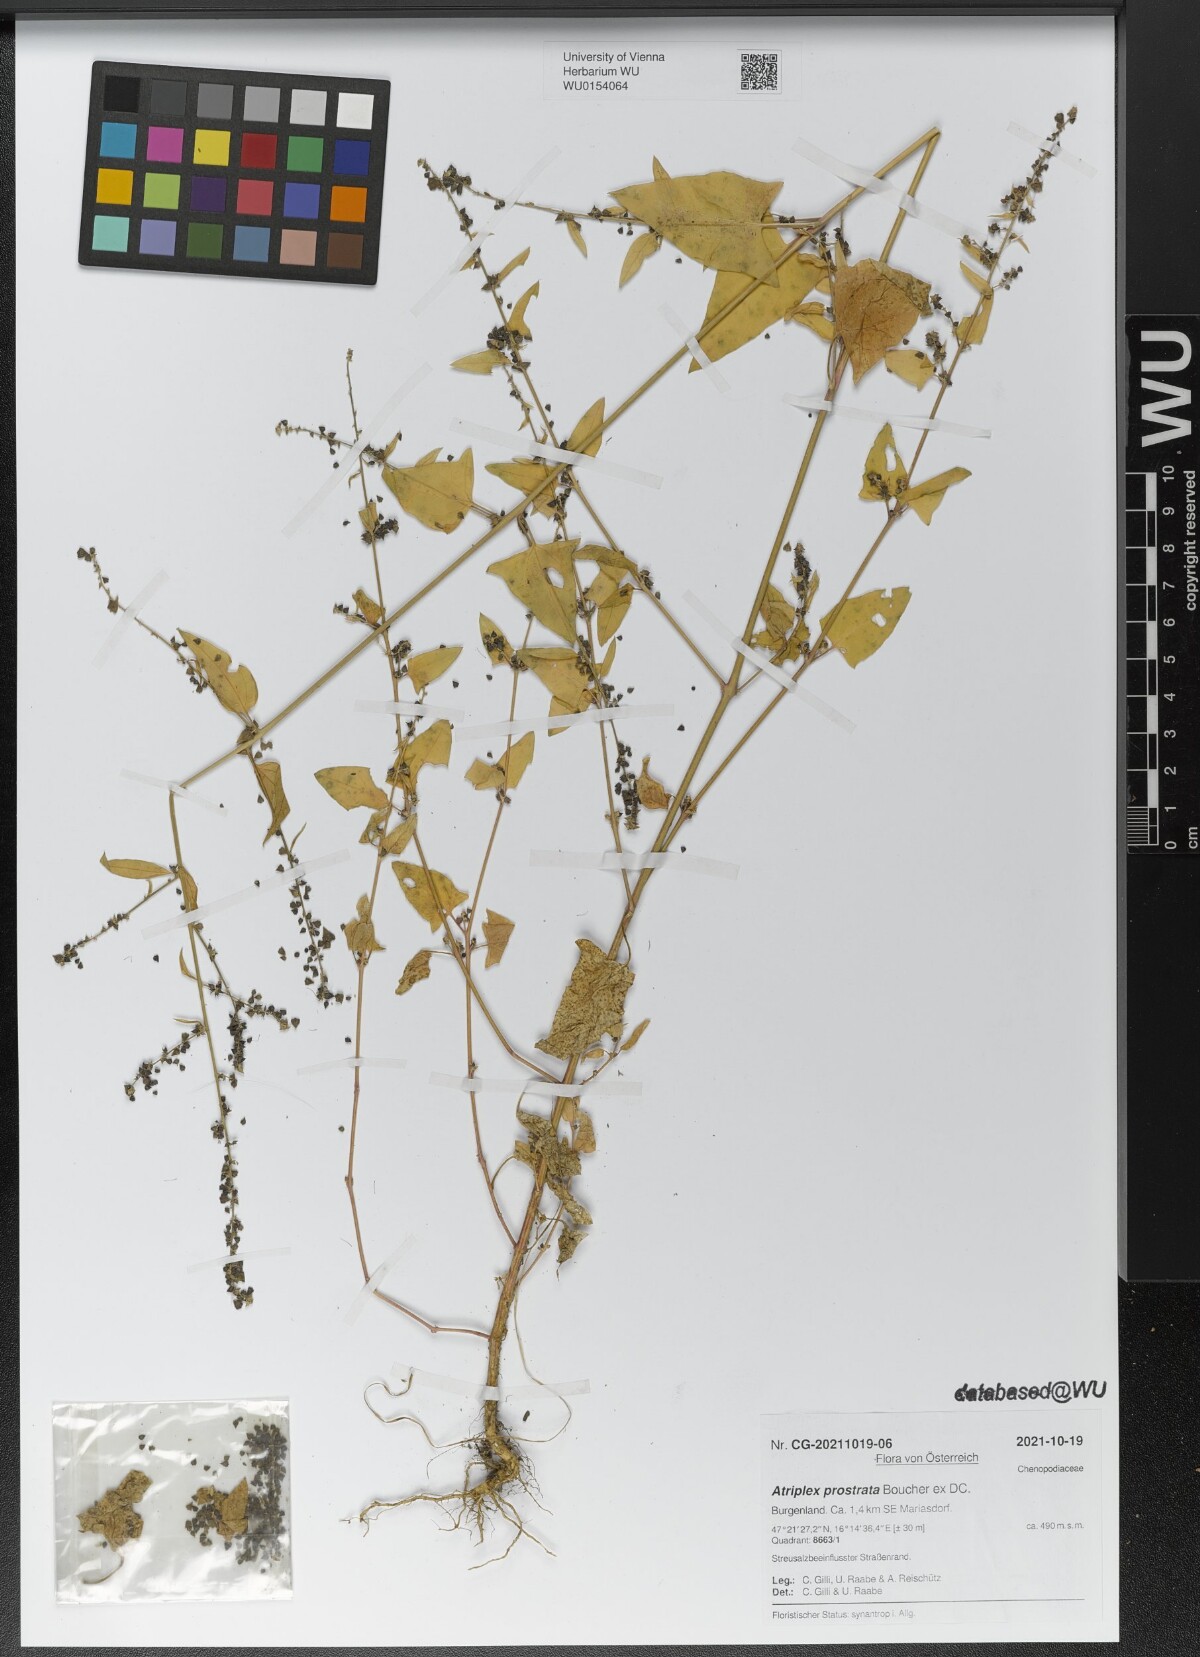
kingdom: Plantae
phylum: Tracheophyta
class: Magnoliopsida
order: Caryophyllales
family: Amaranthaceae
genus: Atriplex
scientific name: Atriplex prostrata
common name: Spear-leaved orache
